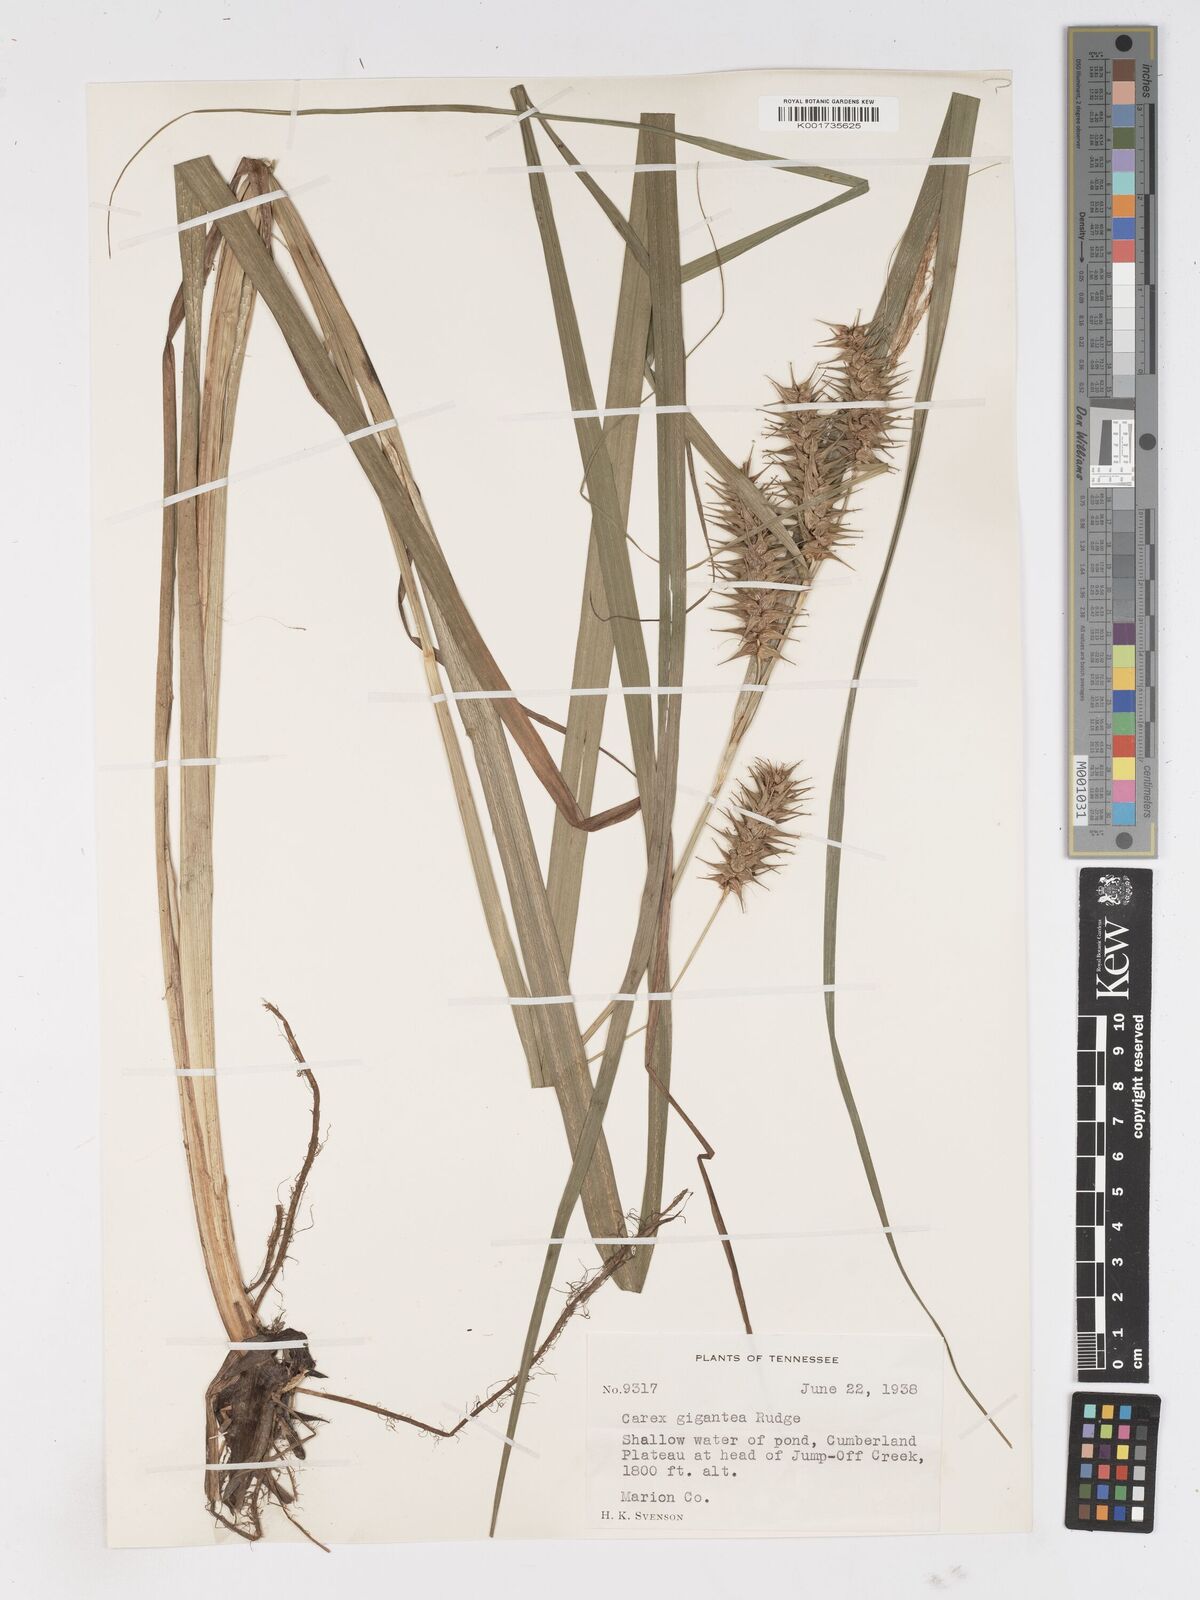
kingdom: Plantae
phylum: Tracheophyta
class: Liliopsida
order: Poales
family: Cyperaceae
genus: Carex
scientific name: Carex gigantea
